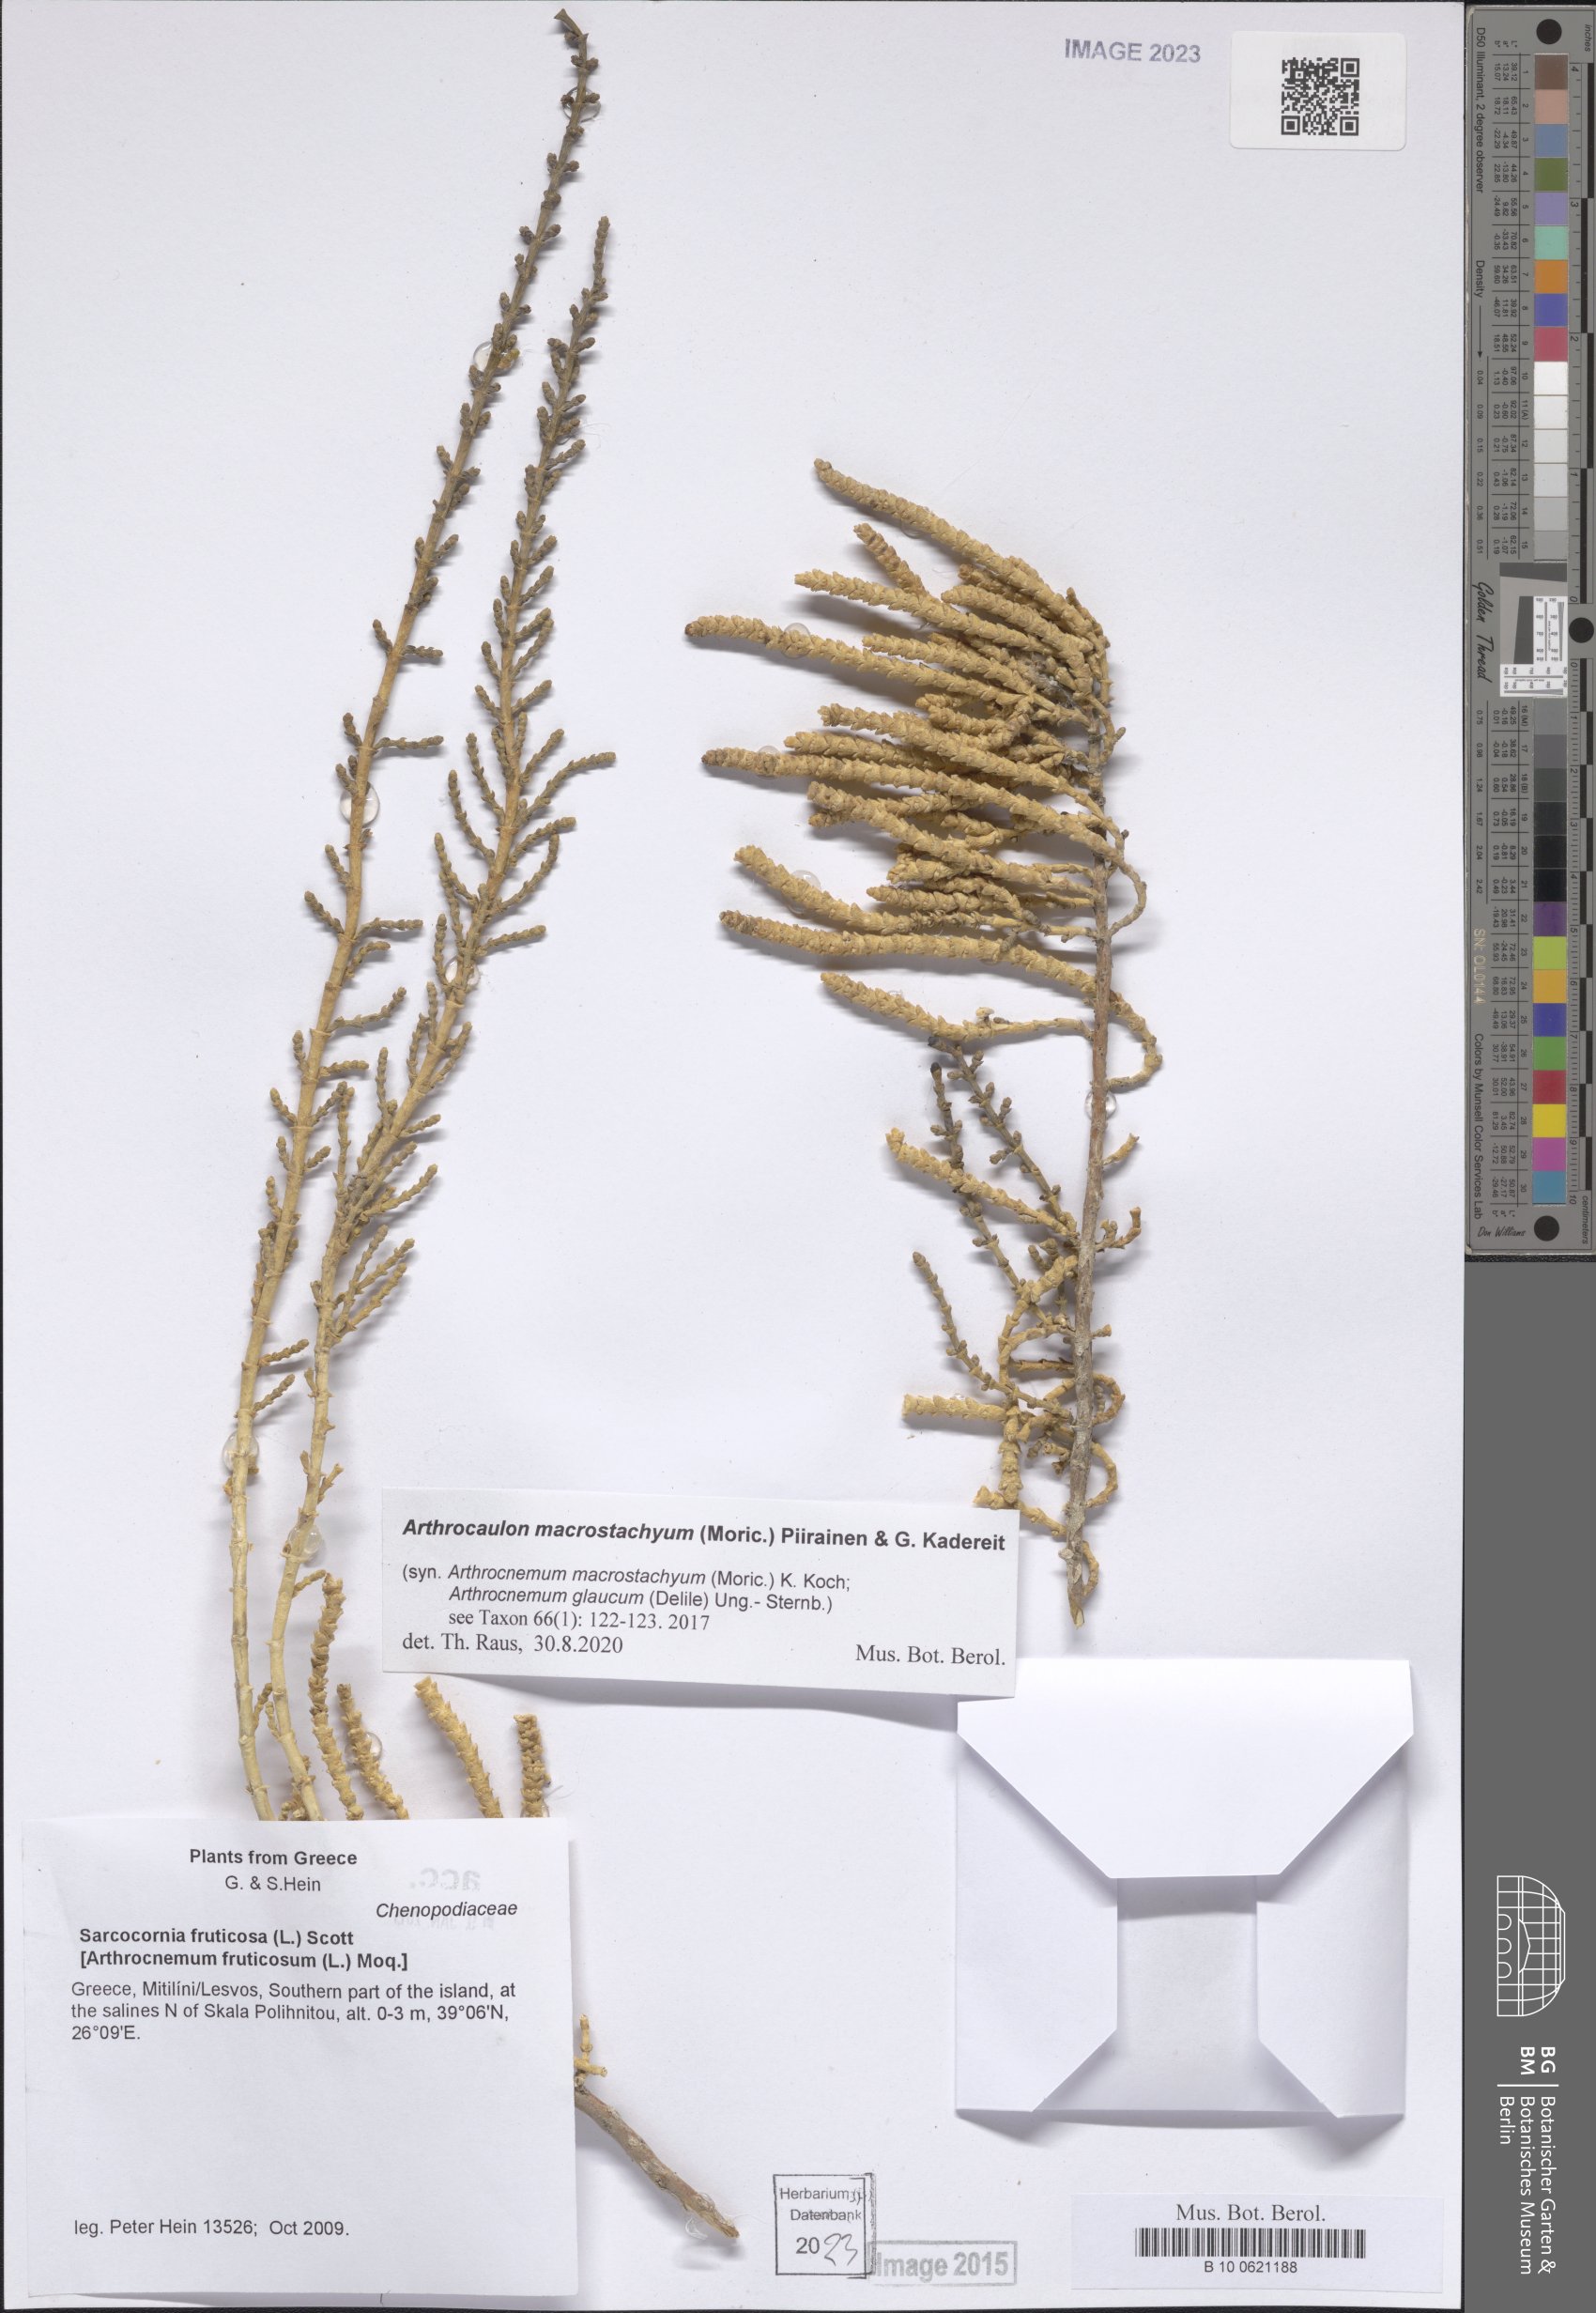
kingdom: Plantae
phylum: Tracheophyta
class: Magnoliopsida
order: Caryophyllales
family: Amaranthaceae
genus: Arthrocaulon
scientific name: Arthrocaulon macrostachyum
